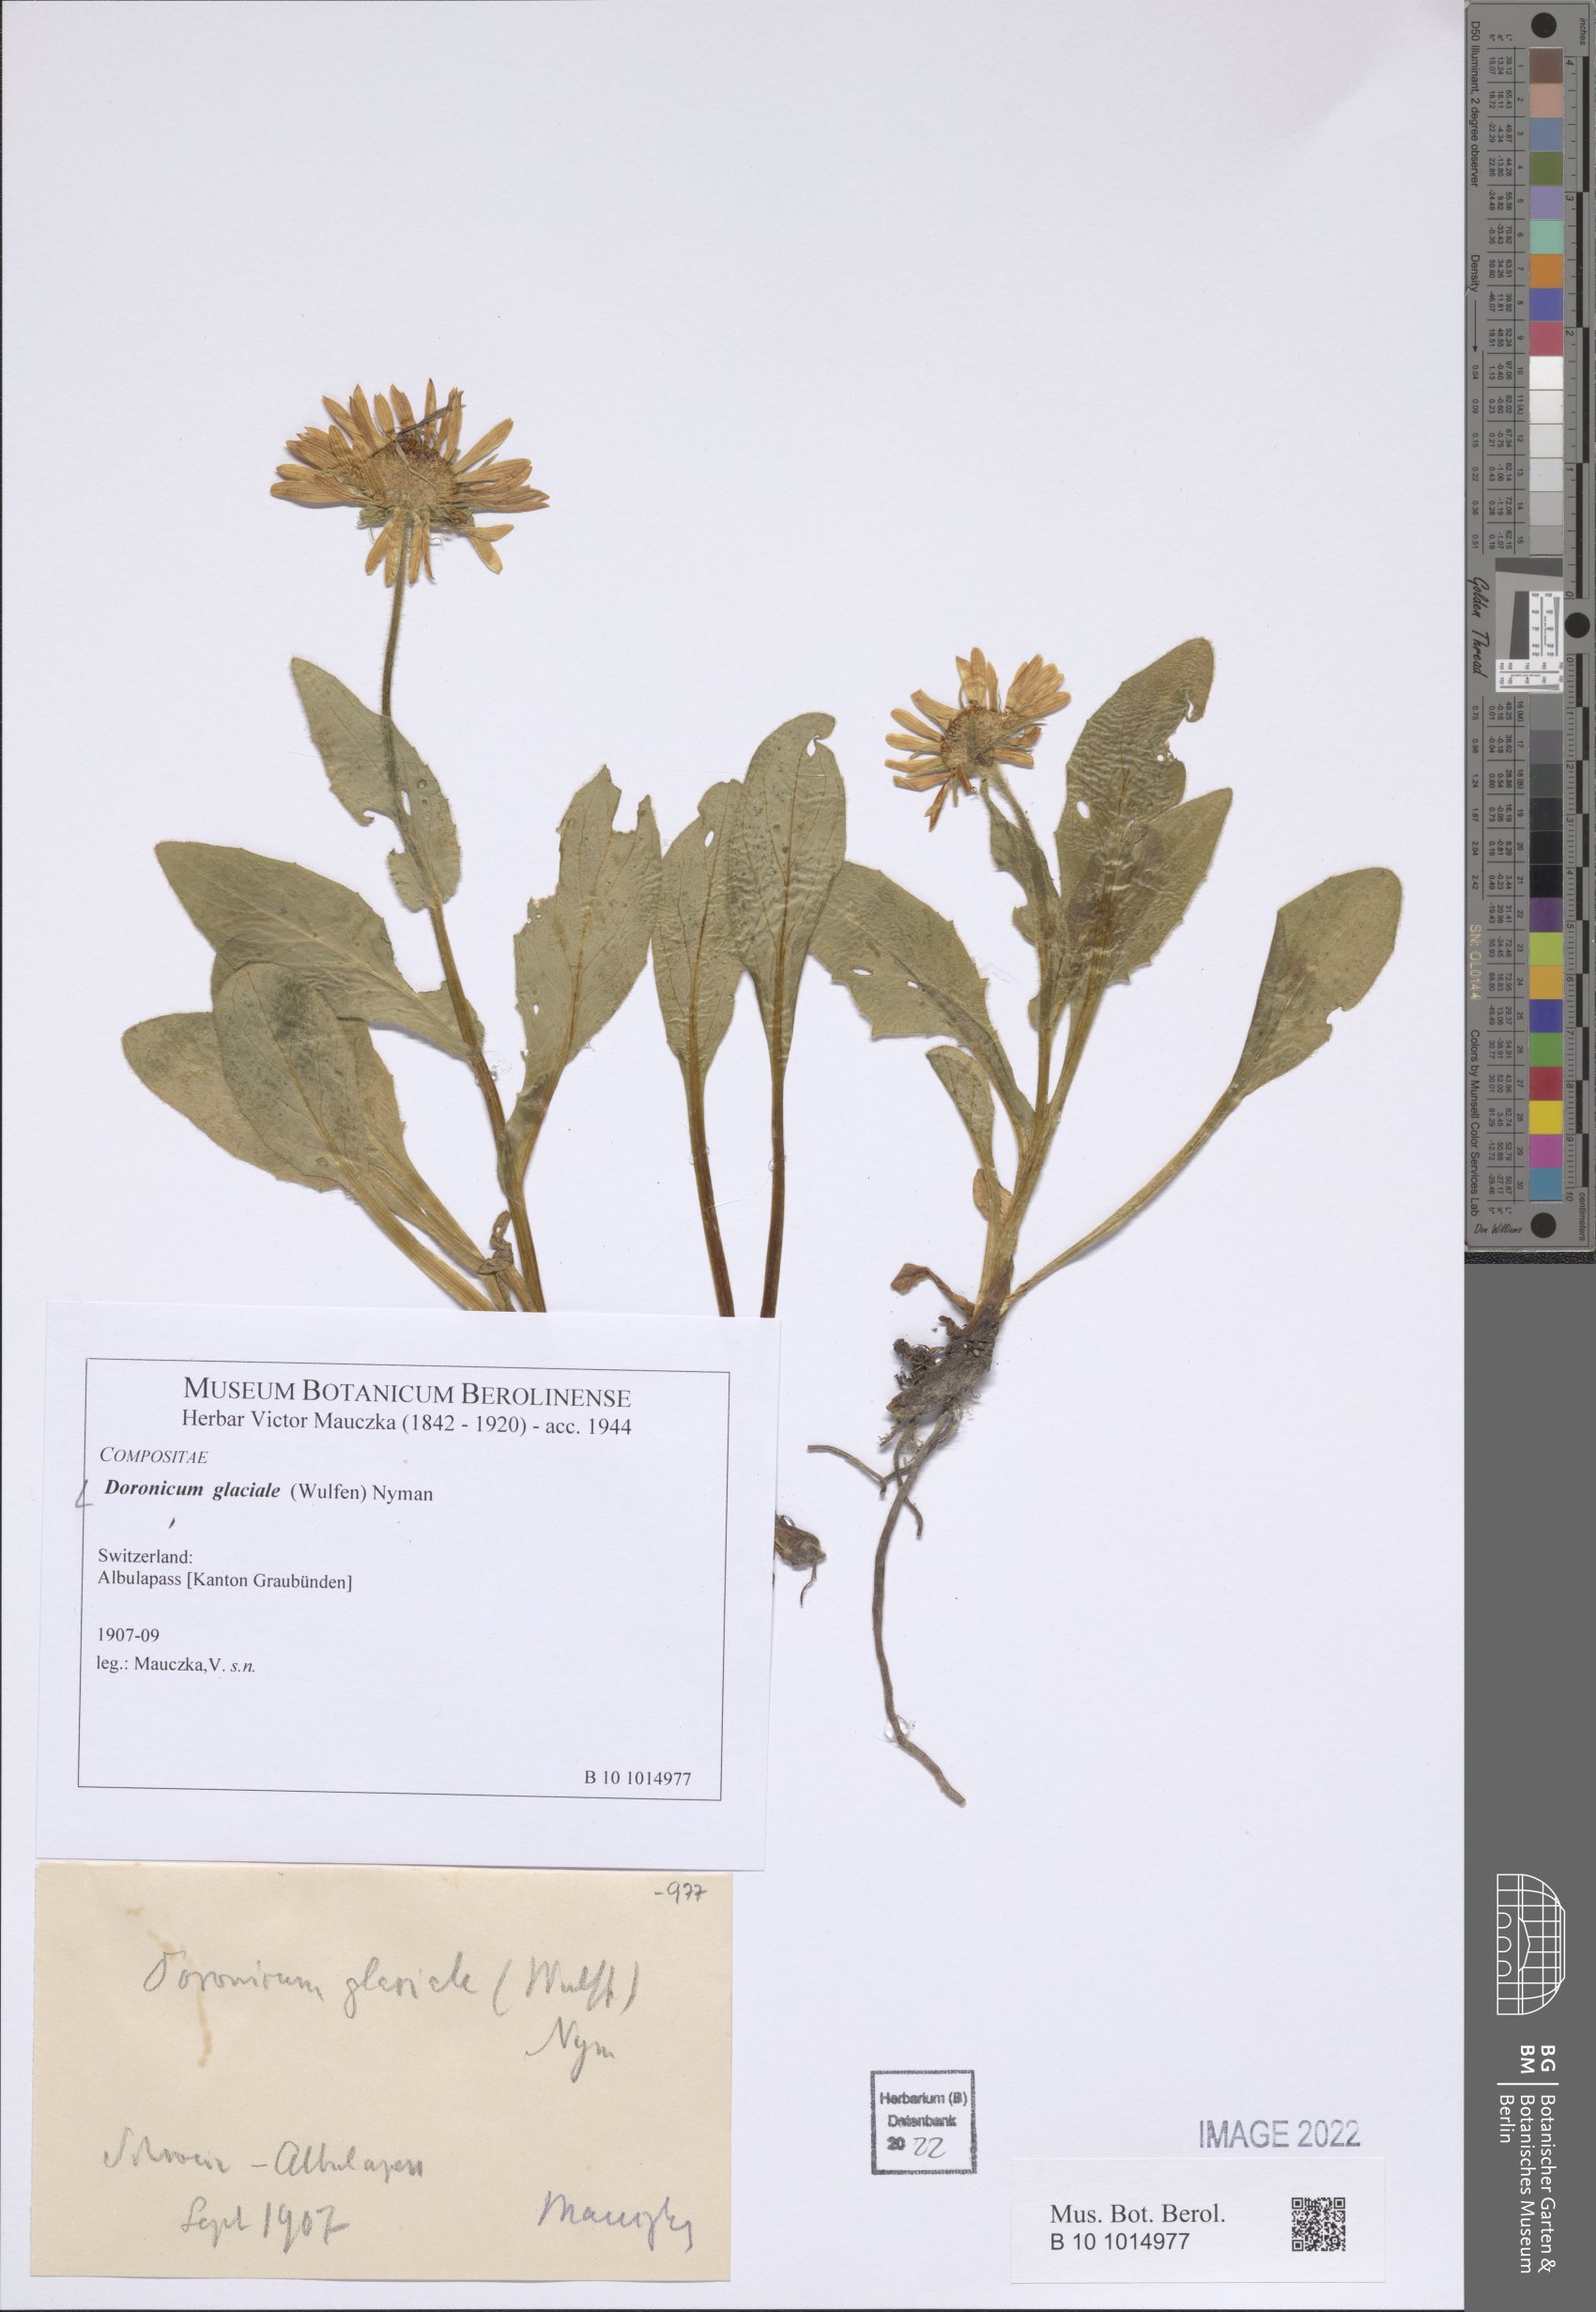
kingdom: Plantae
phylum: Tracheophyta
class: Magnoliopsida
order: Asterales
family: Asteraceae
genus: Doronicum
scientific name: Doronicum glaciale
